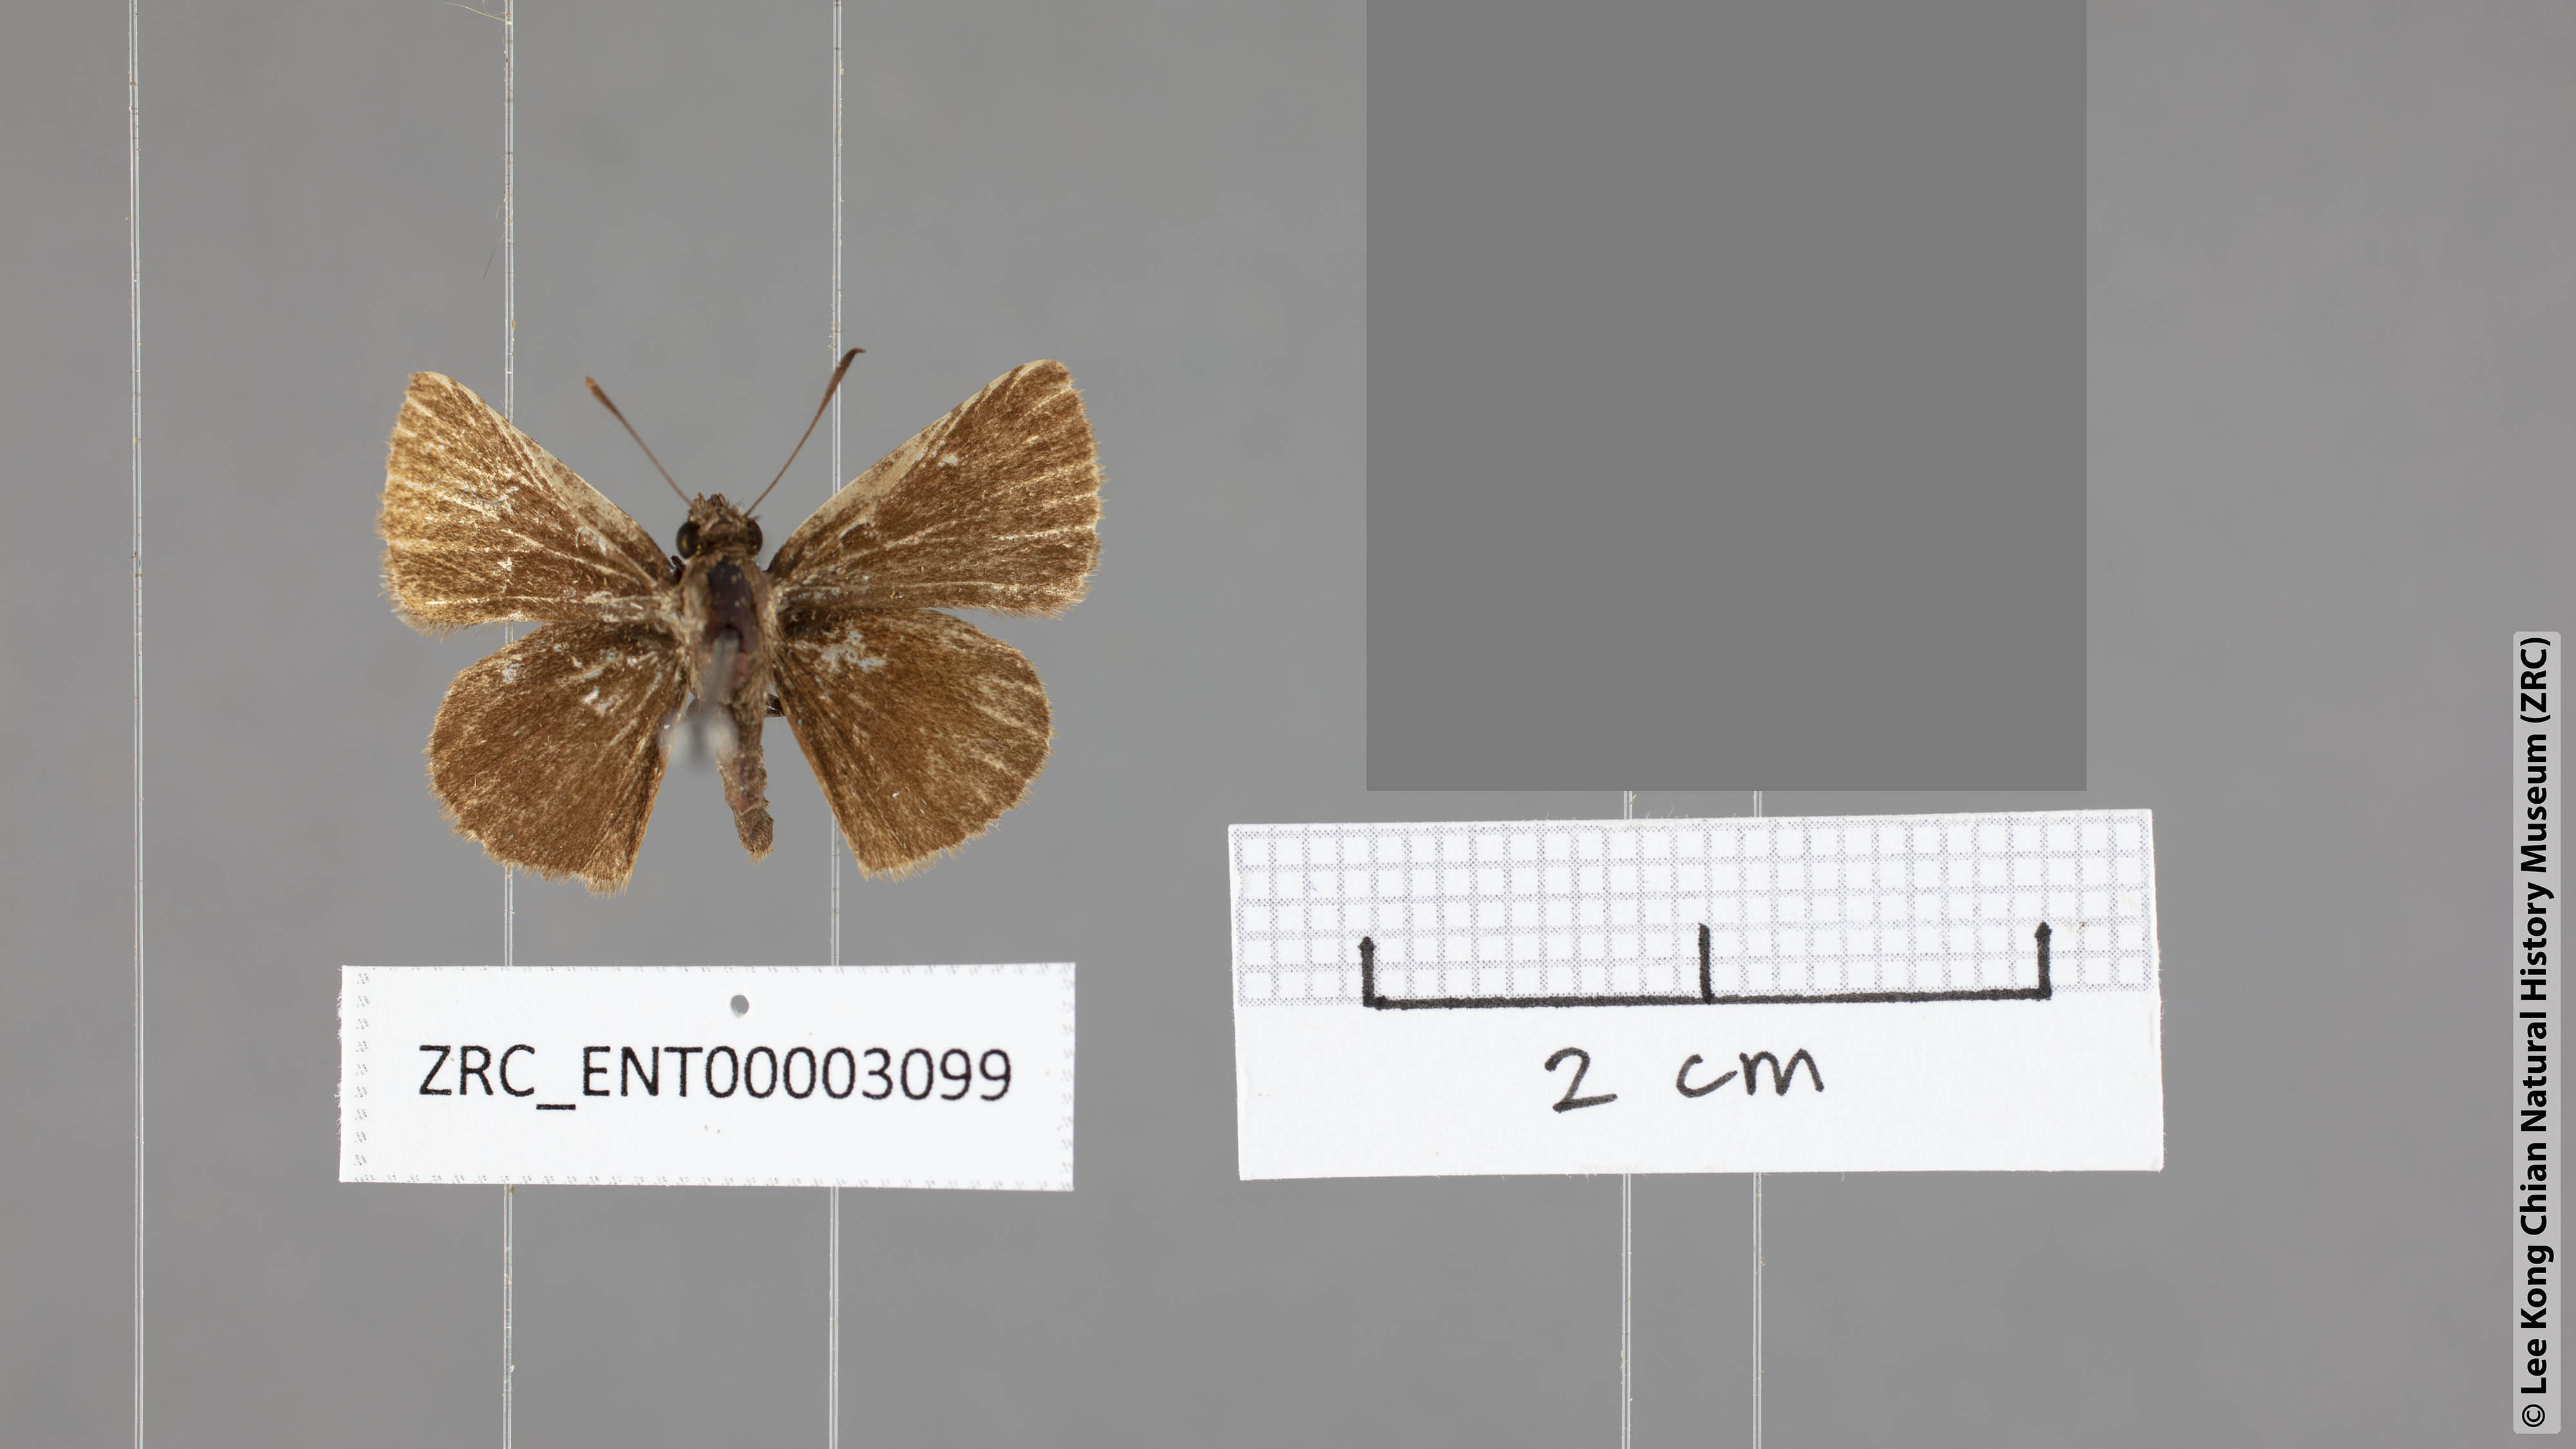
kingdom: Animalia
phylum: Arthropoda
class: Insecta
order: Lepidoptera
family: Hesperiidae
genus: Aeromachus
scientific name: Aeromachus pygmaeus
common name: Pygmy scrub hopper
